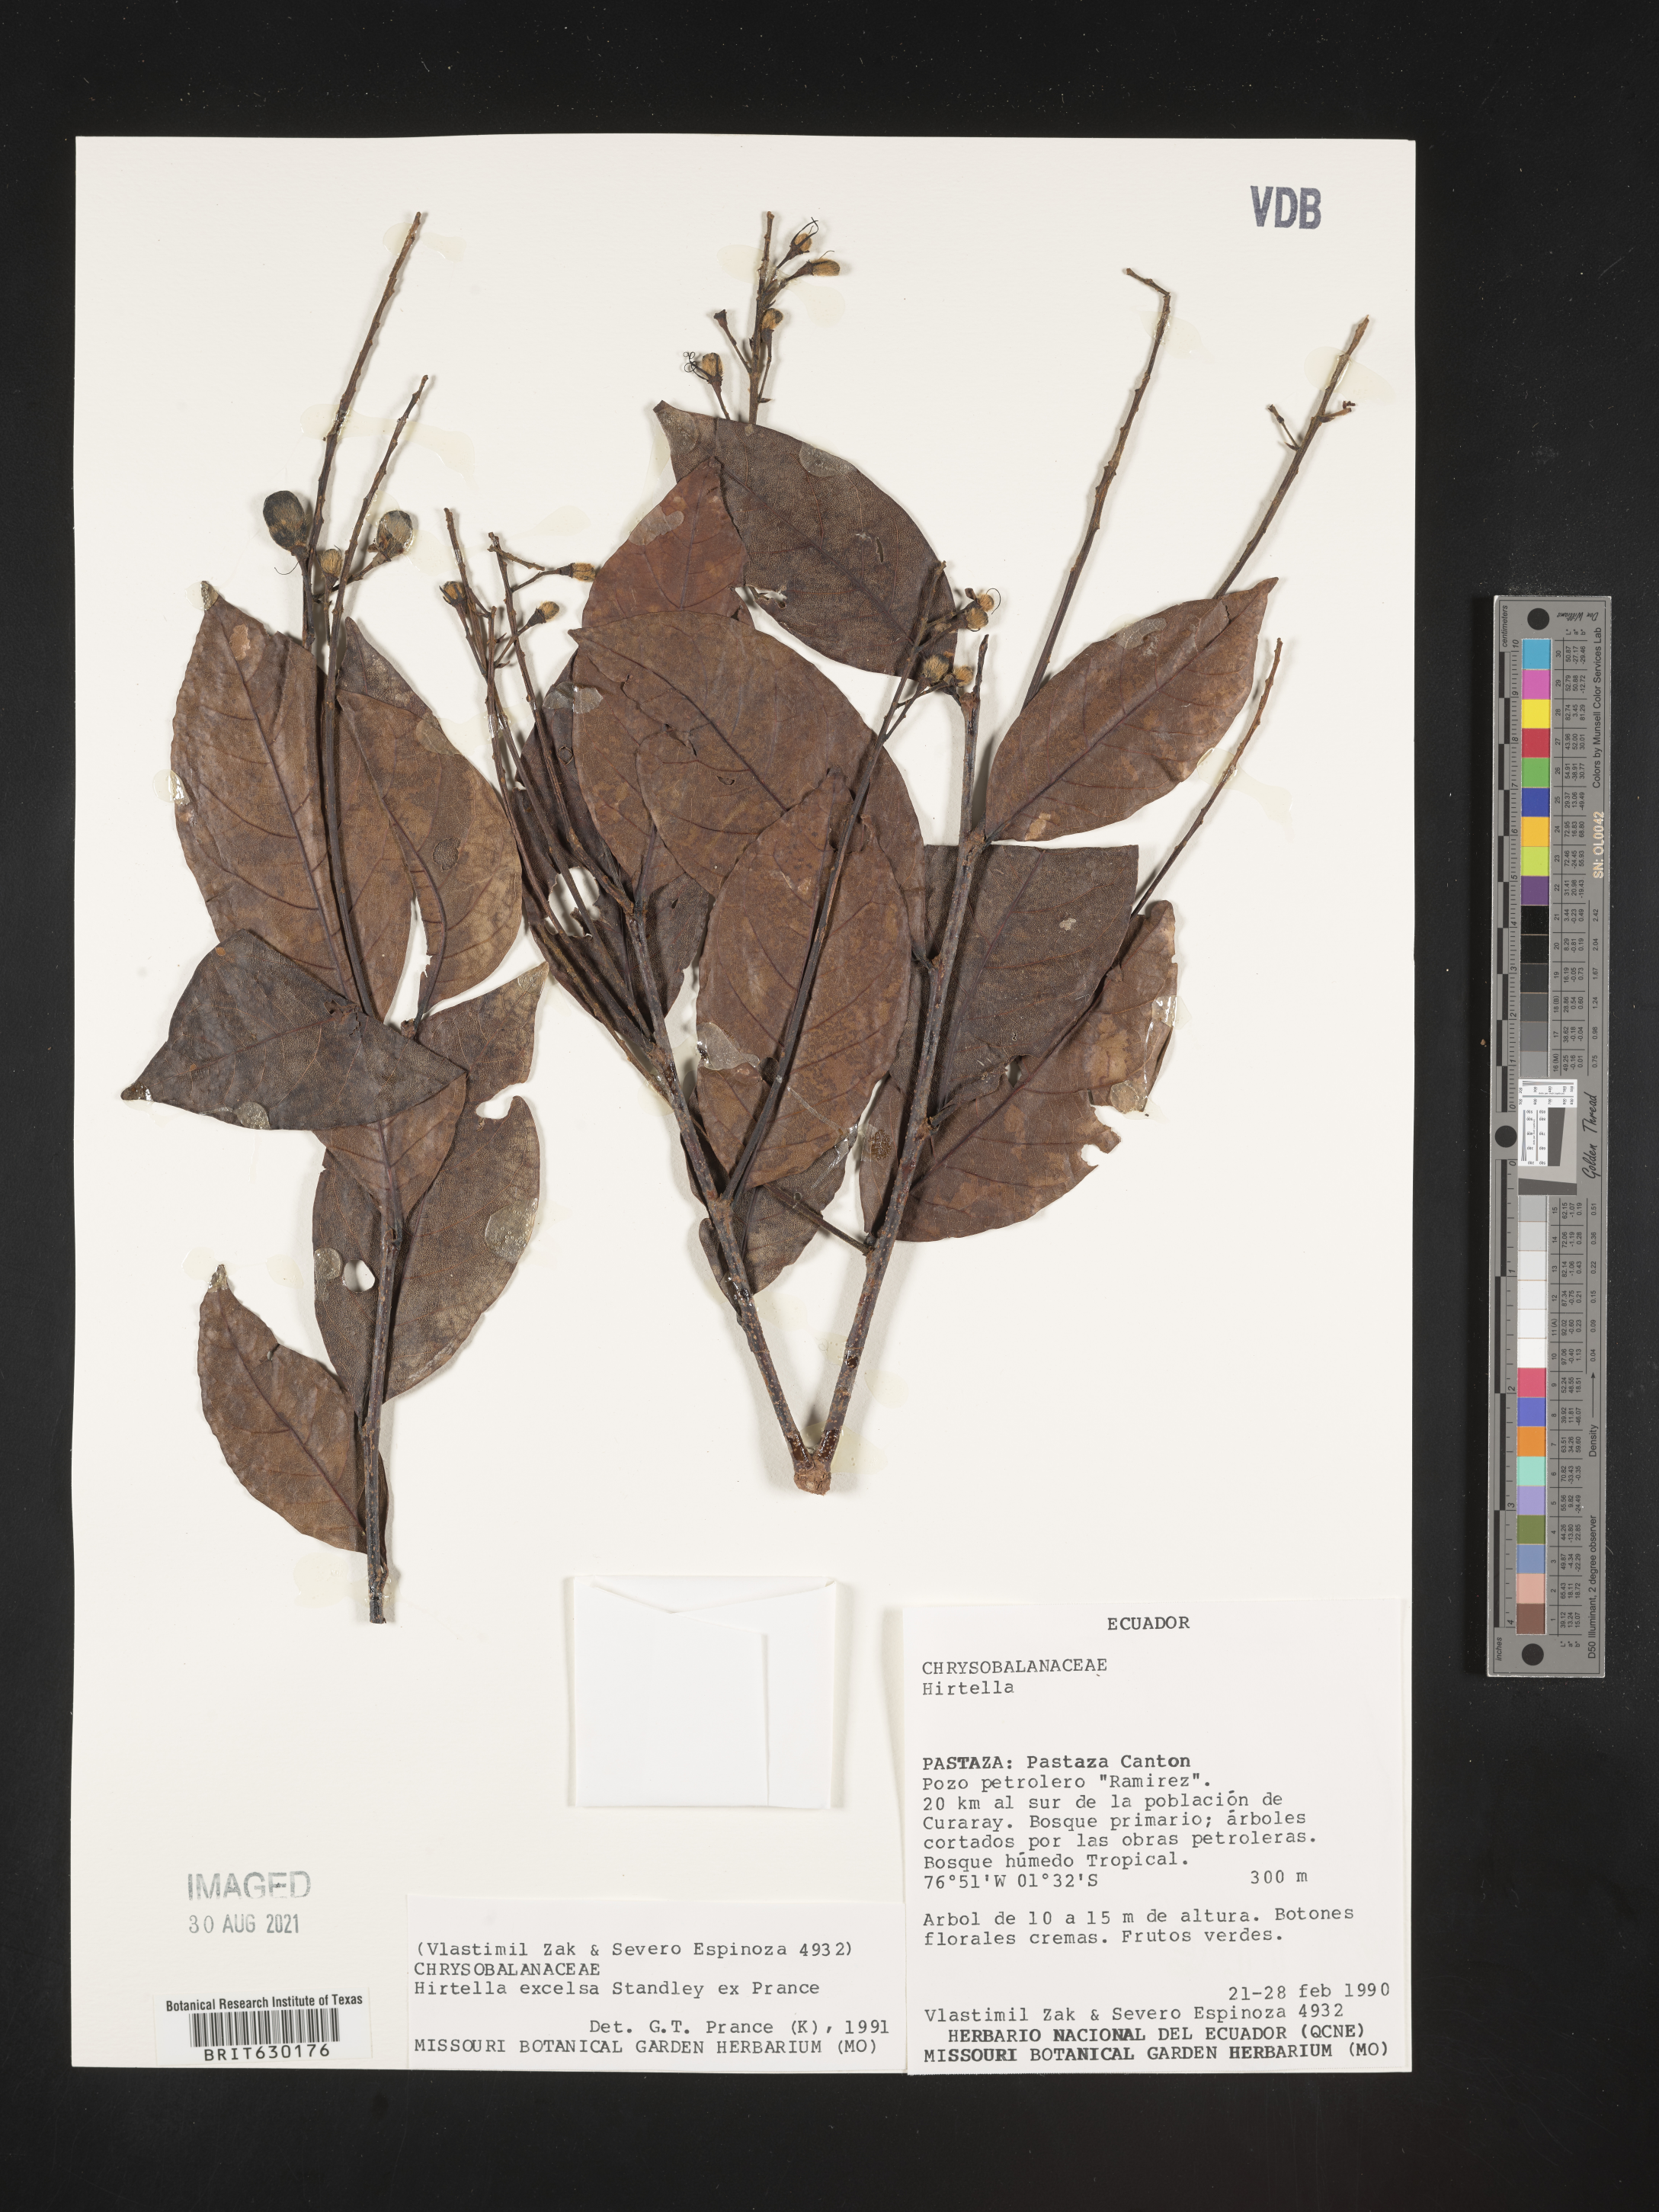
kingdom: Plantae
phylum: Tracheophyta
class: Magnoliopsida
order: Malpighiales
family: Chrysobalanaceae
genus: Hirtella
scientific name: Hirtella excelsa
